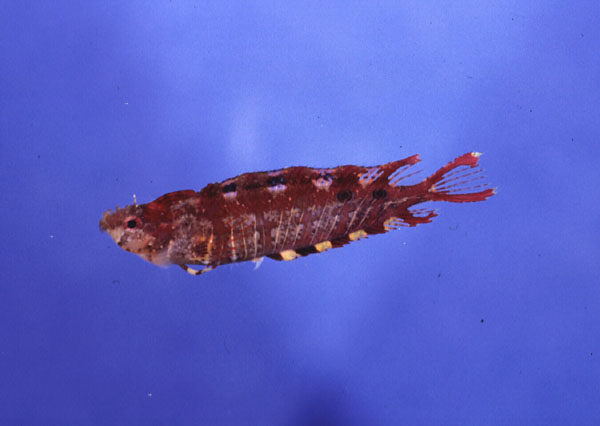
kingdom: Animalia
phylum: Chordata
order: Perciformes
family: Clinidae
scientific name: Clinidae
